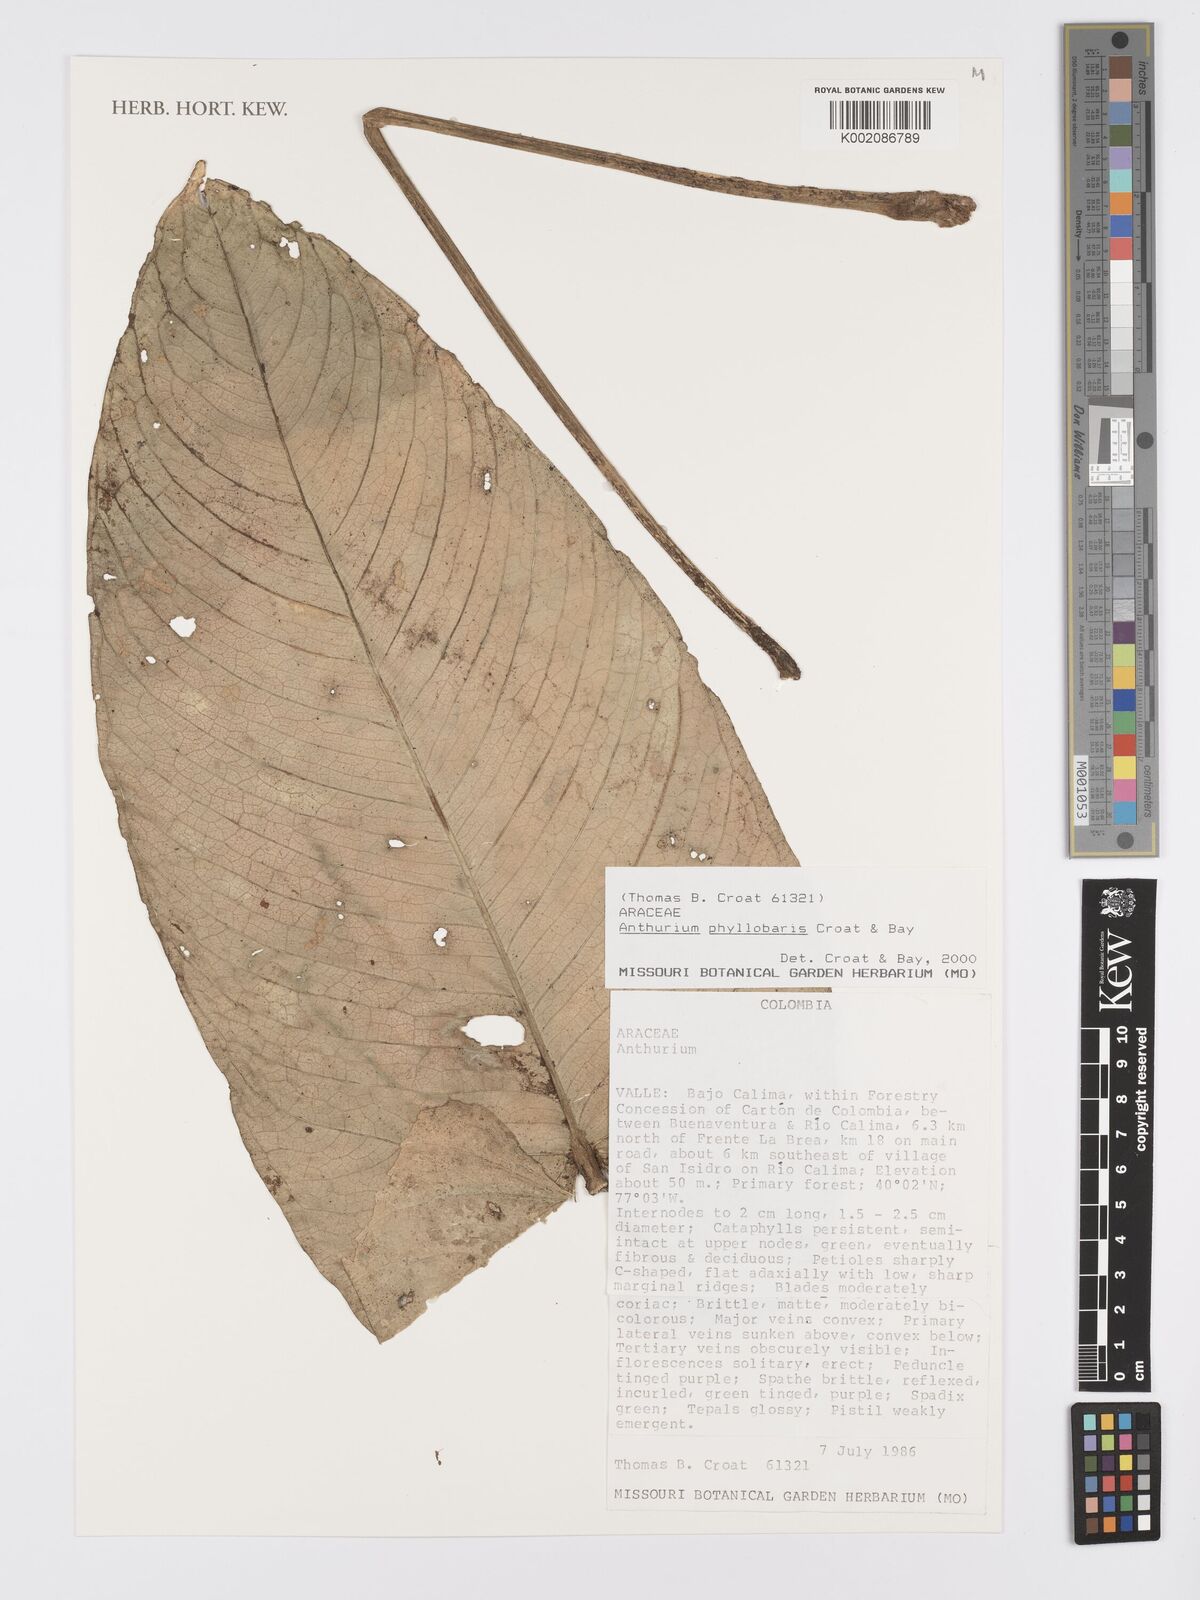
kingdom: Plantae
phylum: Tracheophyta
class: Liliopsida
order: Alismatales
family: Araceae
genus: Anthurium
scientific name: Anthurium phyllobaris
